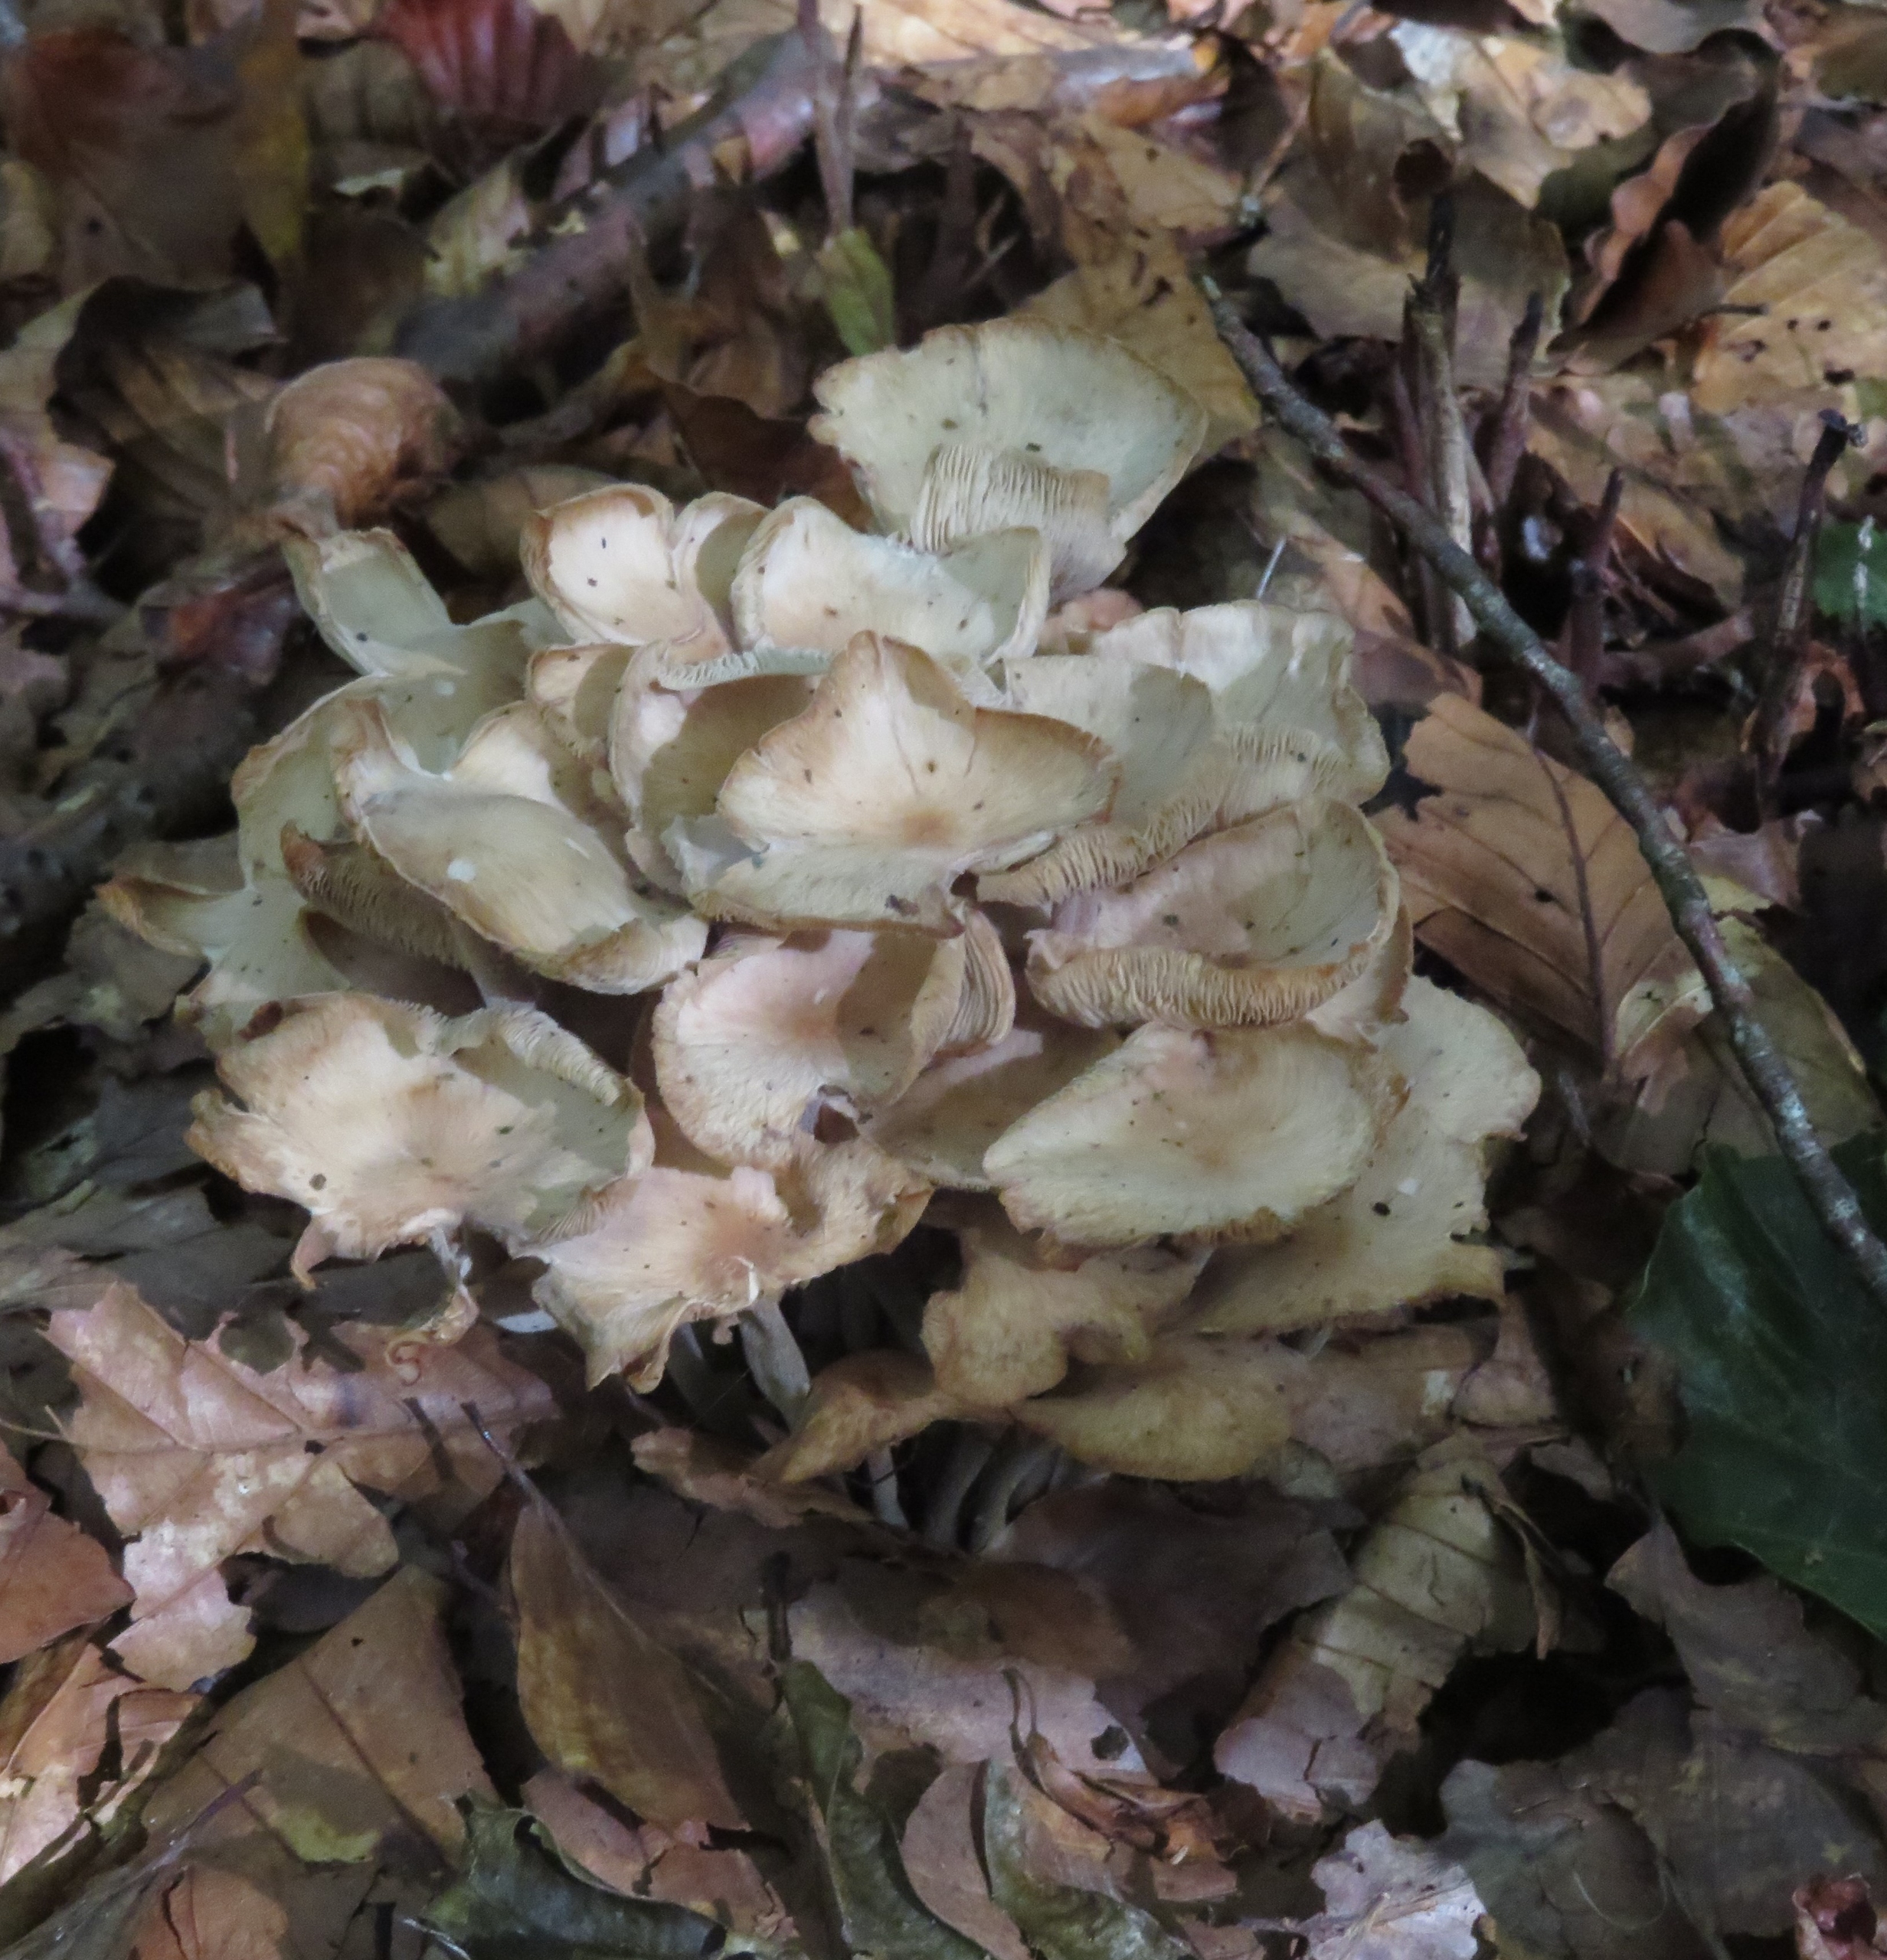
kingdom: Fungi
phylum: Basidiomycota
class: Agaricomycetes
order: Agaricales
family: Omphalotaceae
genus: Collybiopsis
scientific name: Collybiopsis confluens
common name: Knippe-fladhat
